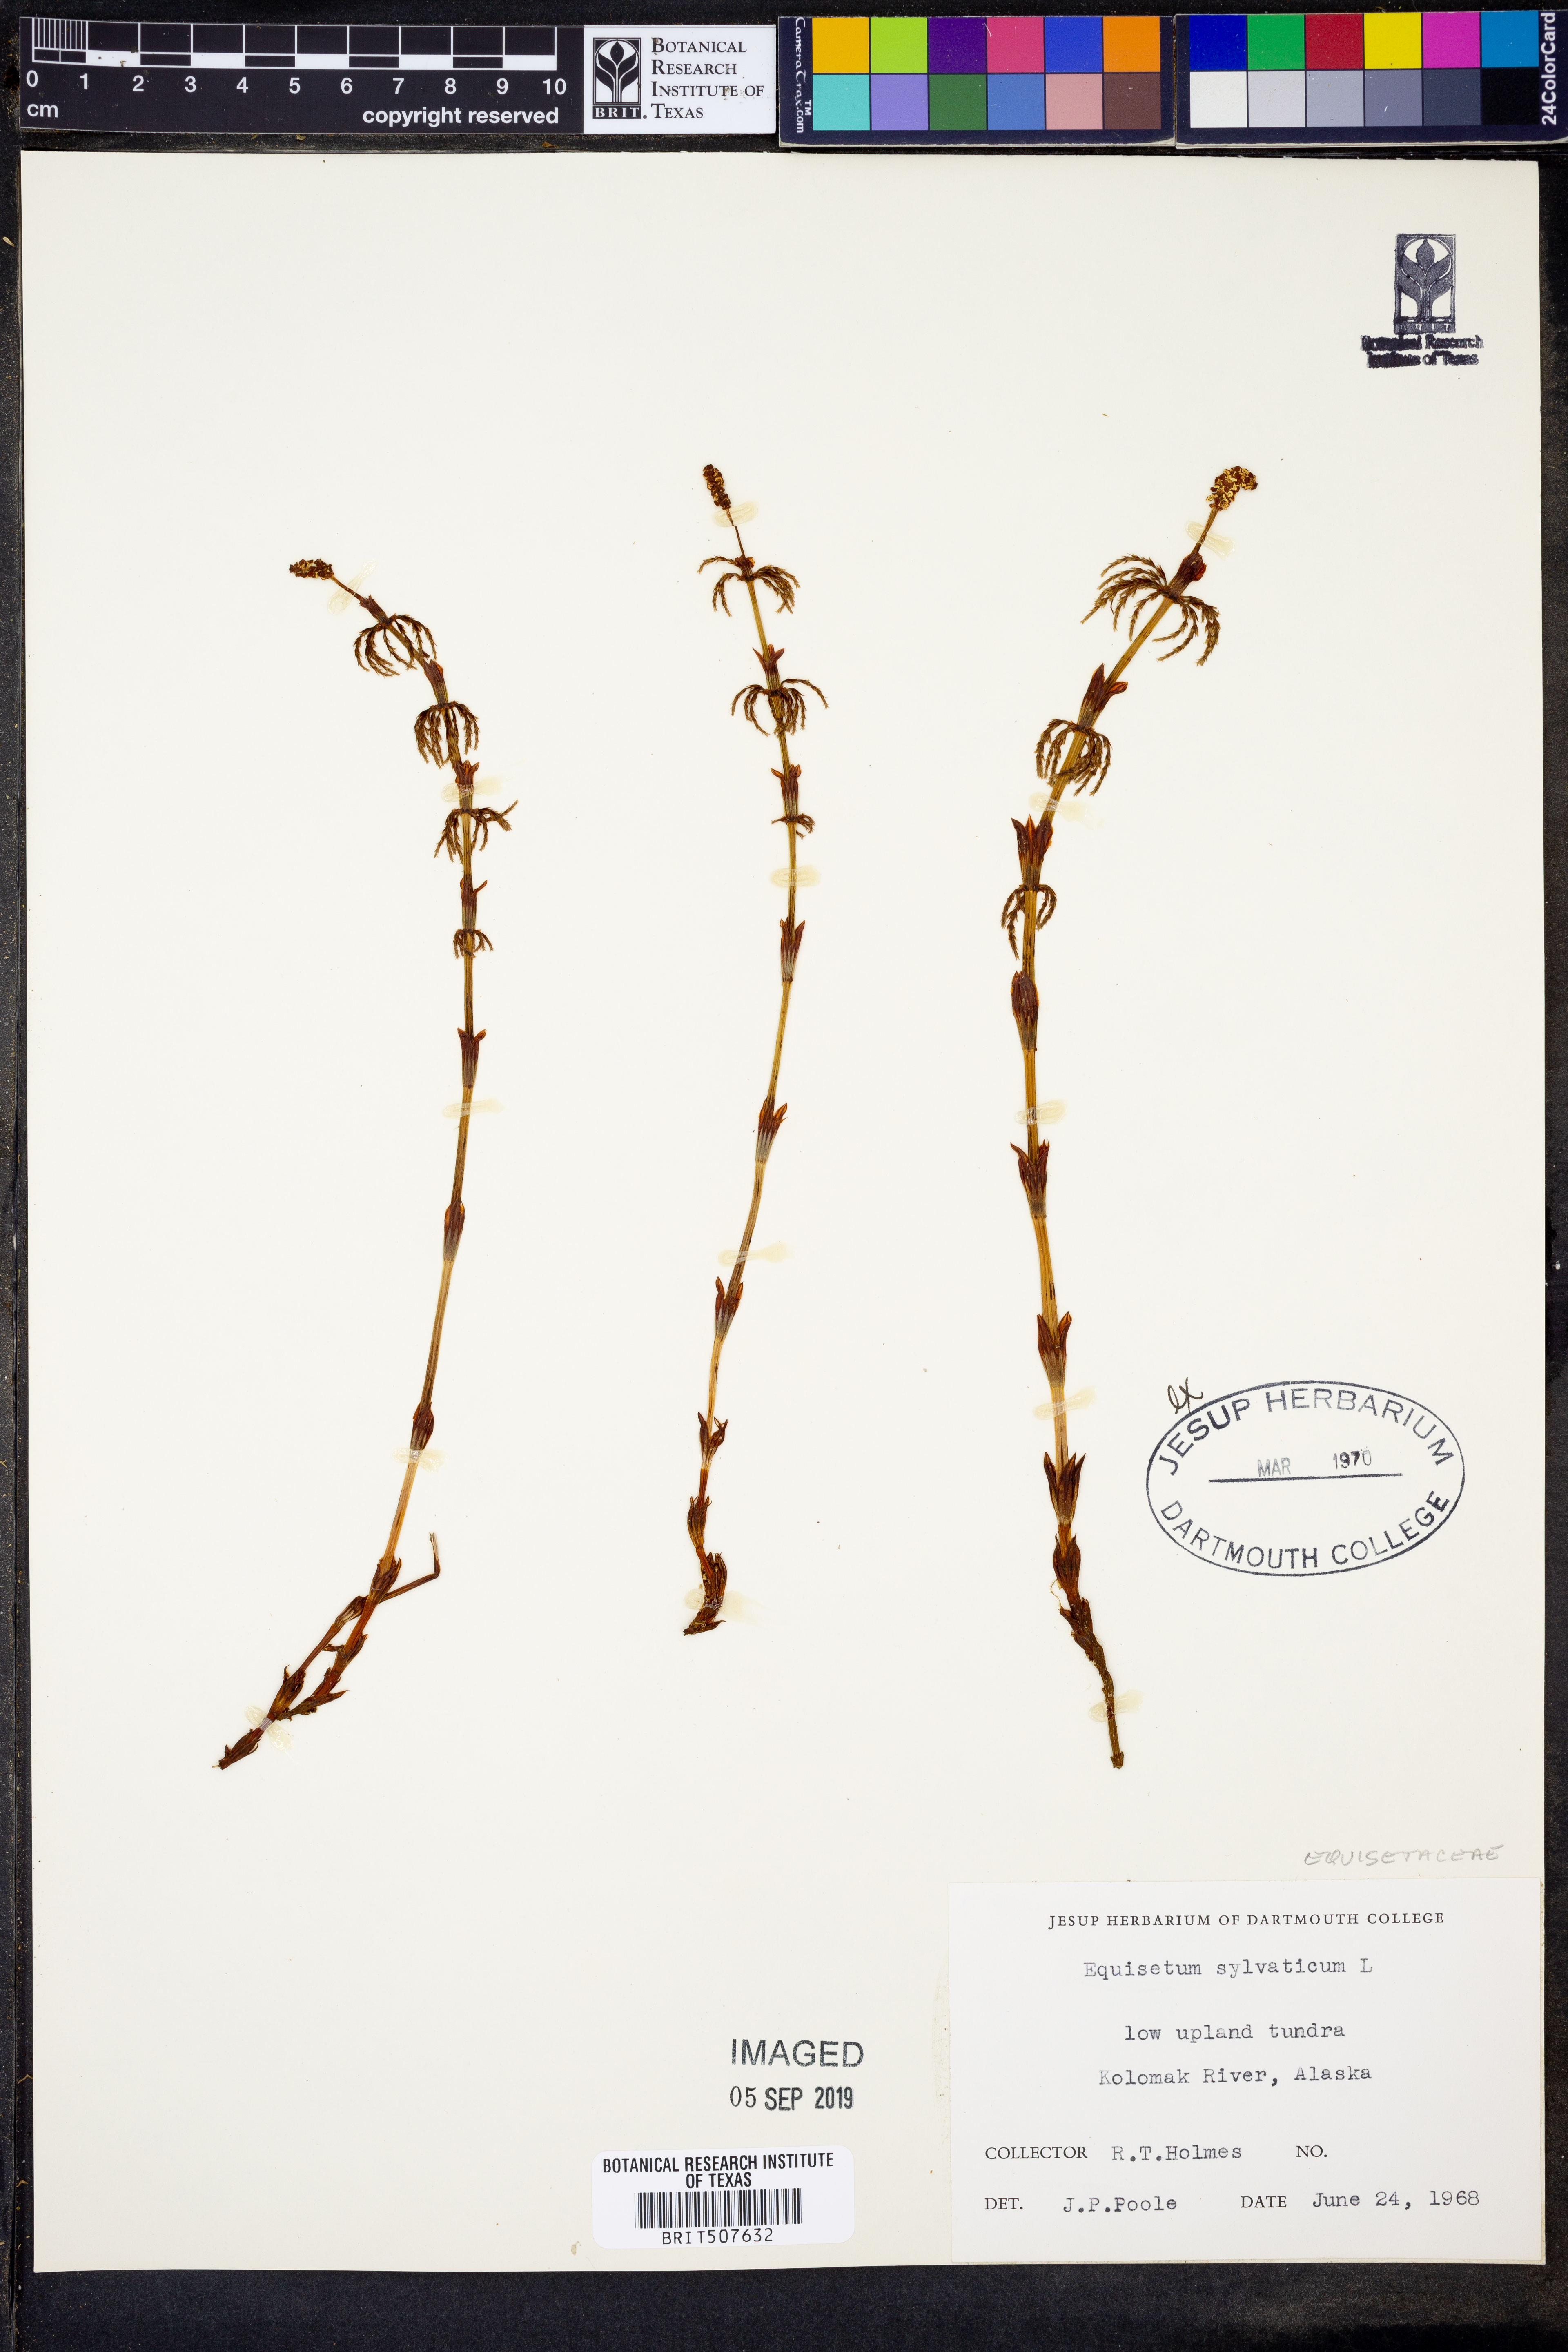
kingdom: Plantae
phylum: Tracheophyta
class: Polypodiopsida
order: Equisetales
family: Equisetaceae
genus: Equisetum
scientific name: Equisetum sylvaticum
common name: Wood horsetail
